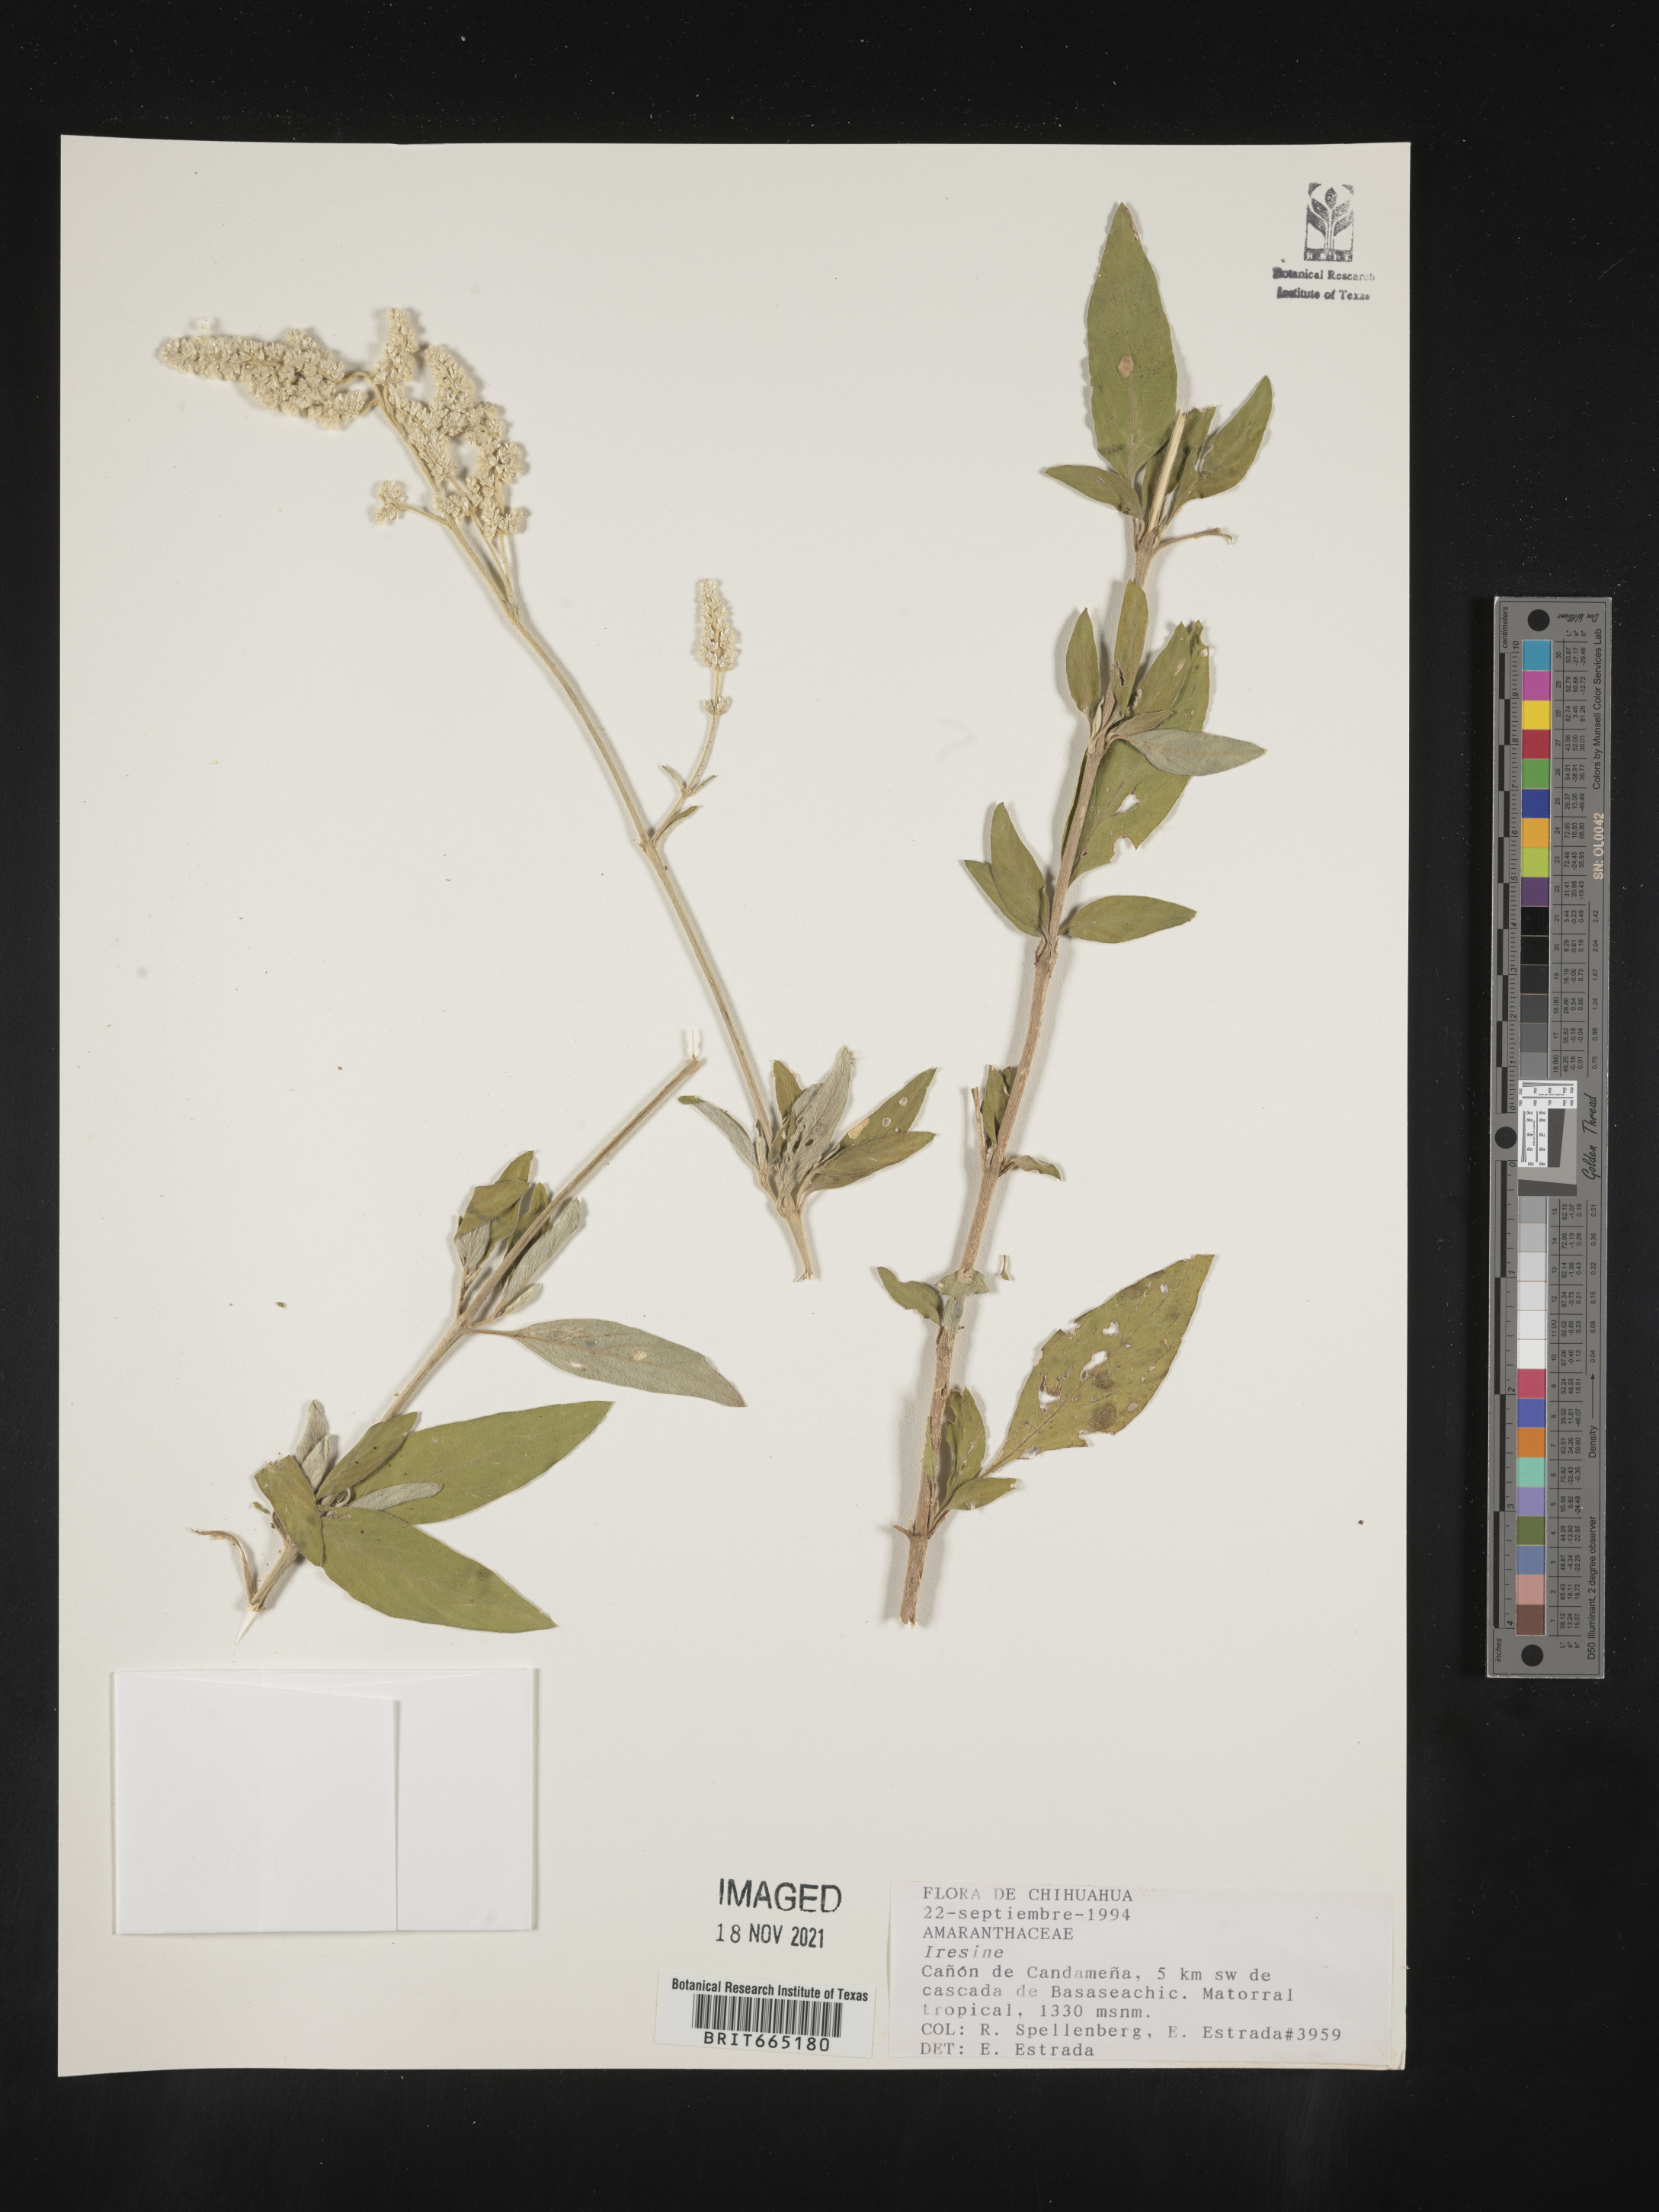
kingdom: Plantae
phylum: Tracheophyta
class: Magnoliopsida
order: Caryophyllales
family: Amaranthaceae
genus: Iresine
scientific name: Iresine
